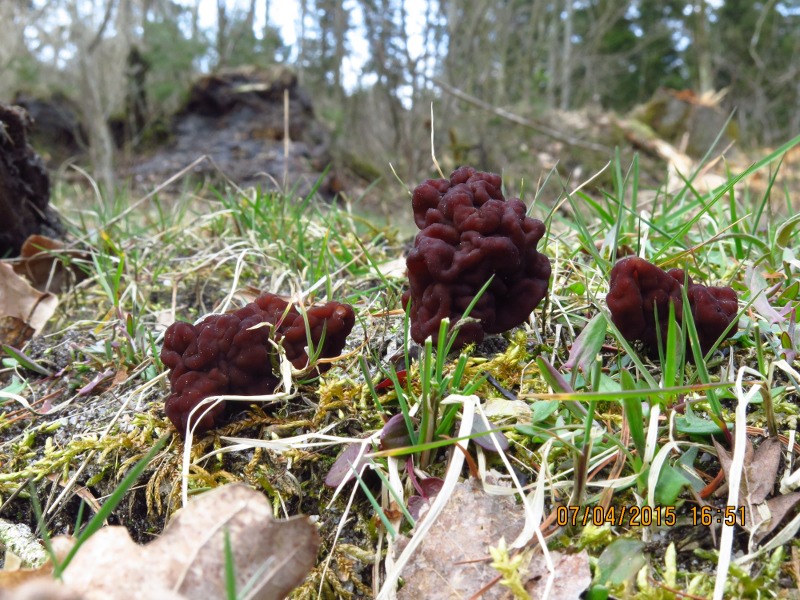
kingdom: Fungi
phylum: Ascomycota
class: Pezizomycetes
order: Pezizales
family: Discinaceae
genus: Gyromitra
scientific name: Gyromitra esculenta
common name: ægte stenmorkel
